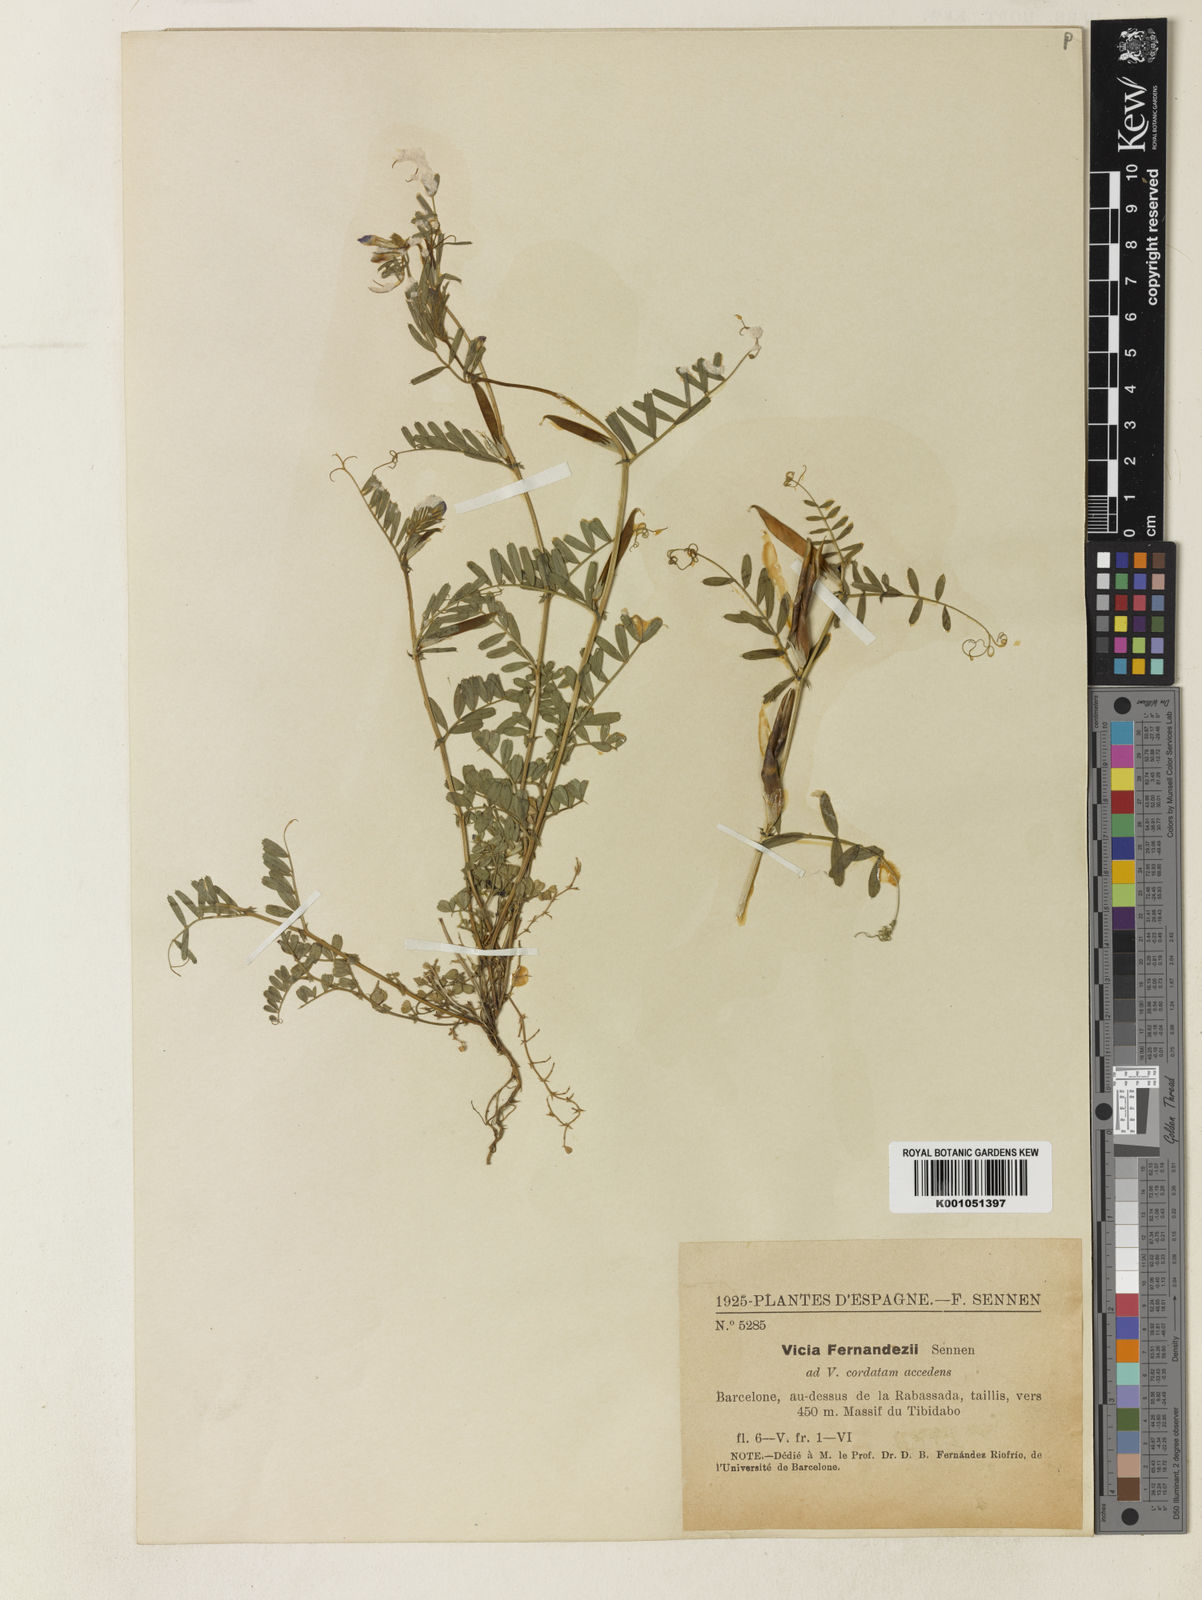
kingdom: Plantae
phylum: Tracheophyta
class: Magnoliopsida
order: Fabales
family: Fabaceae
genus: Vicia
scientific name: Vicia sativa
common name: Garden vetch
